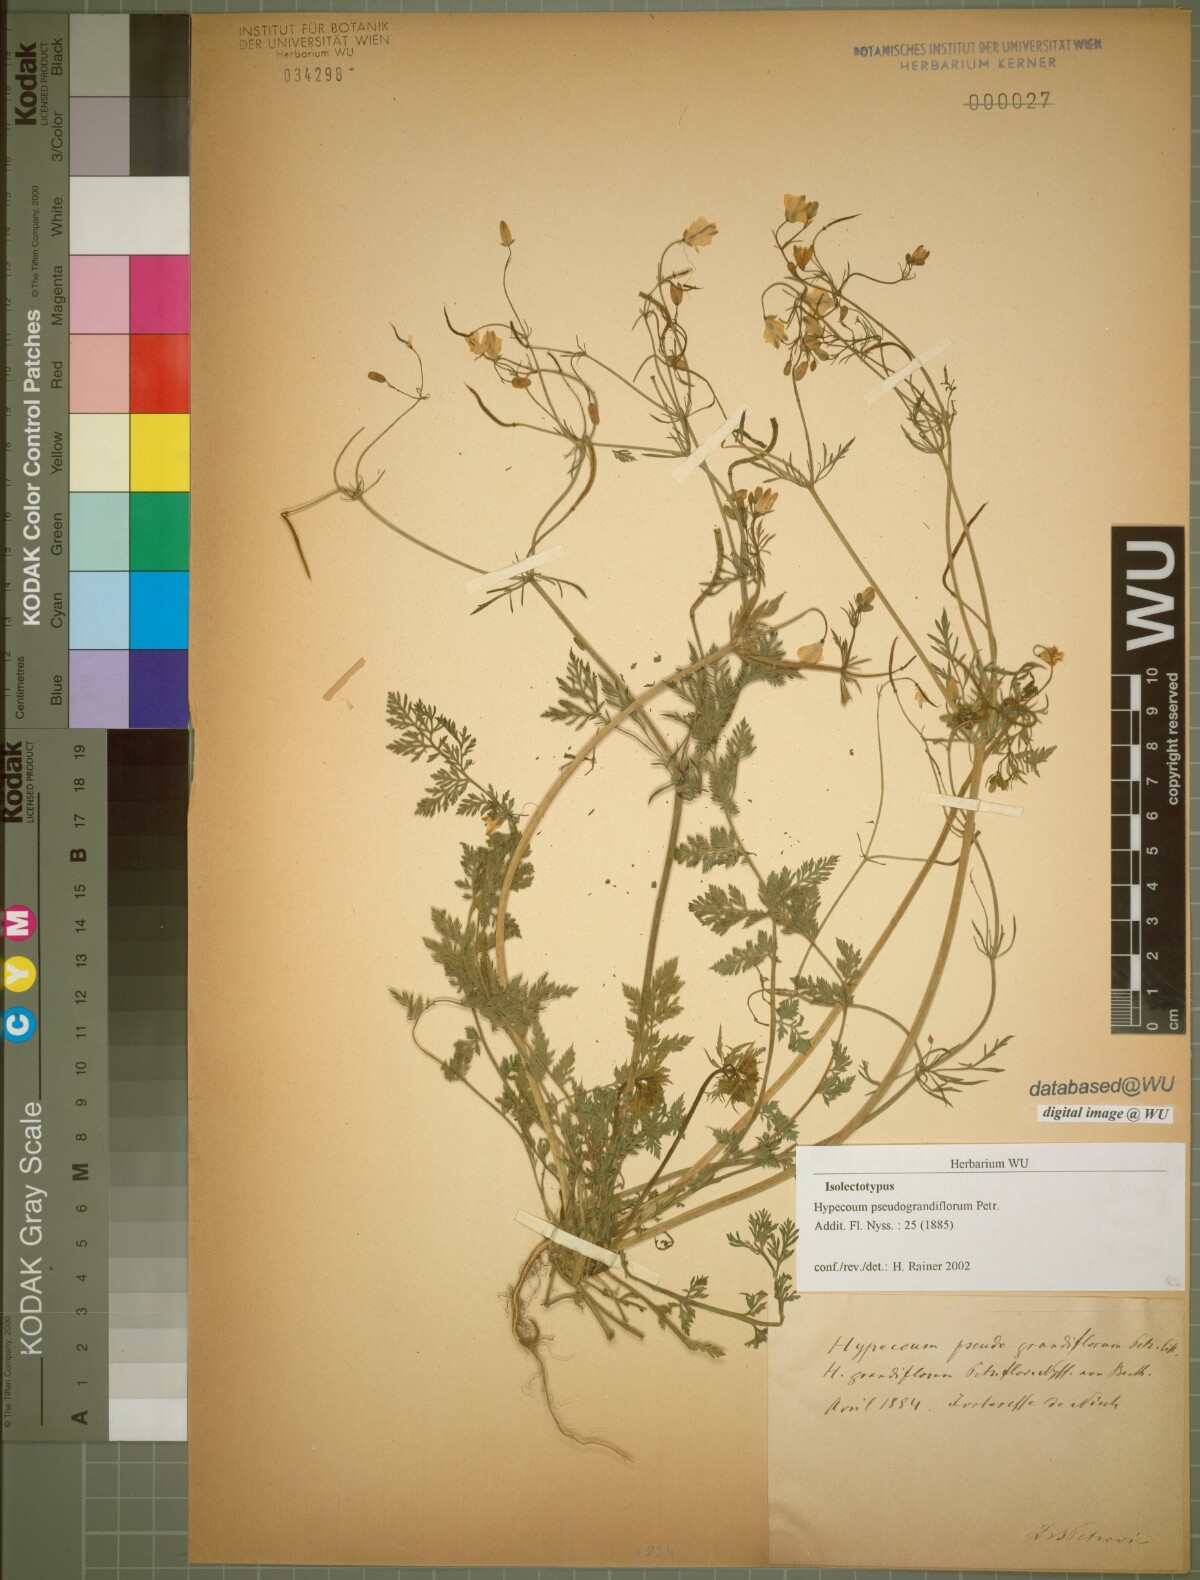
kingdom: Plantae
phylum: Tracheophyta
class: Magnoliopsida
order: Ranunculales
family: Papaveraceae
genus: Hypecoum
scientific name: Hypecoum pseudograndiflorum
